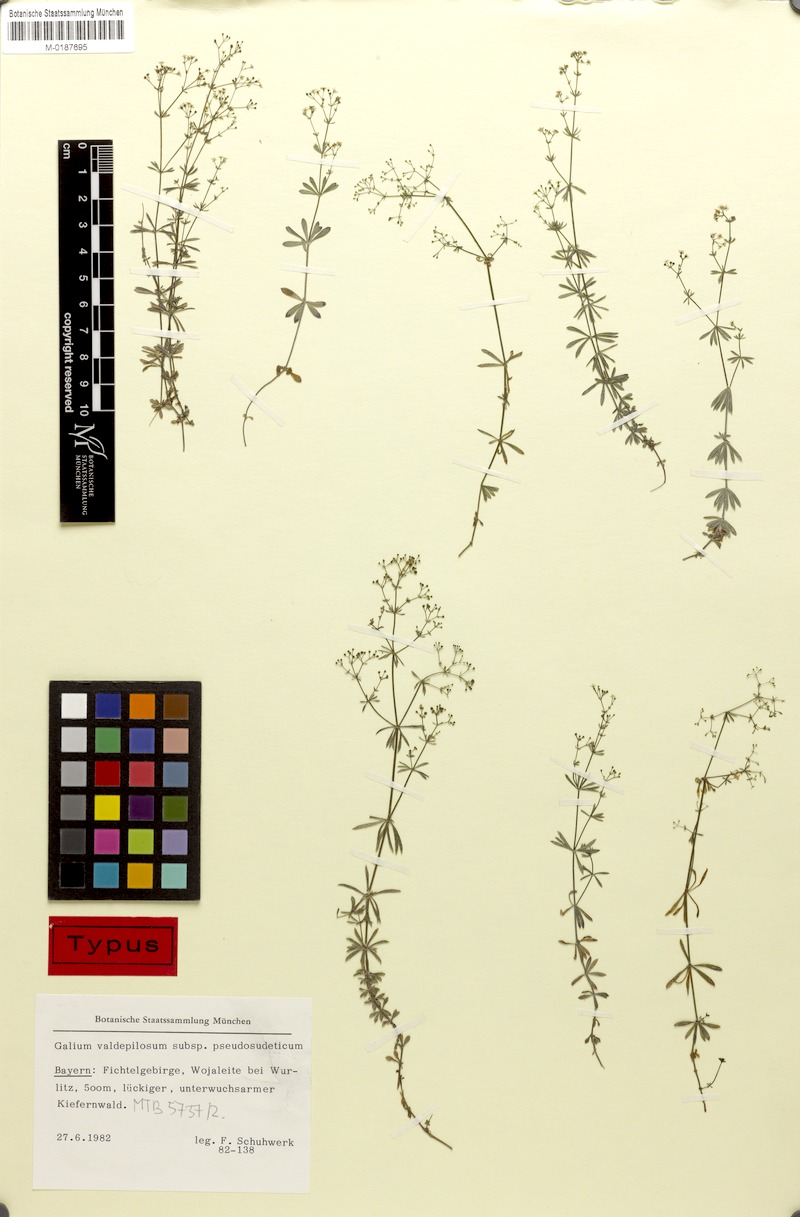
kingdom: Plantae
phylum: Tracheophyta
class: Magnoliopsida
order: Gentianales
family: Rubiaceae
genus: Galium
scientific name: Galium valdepilosum
